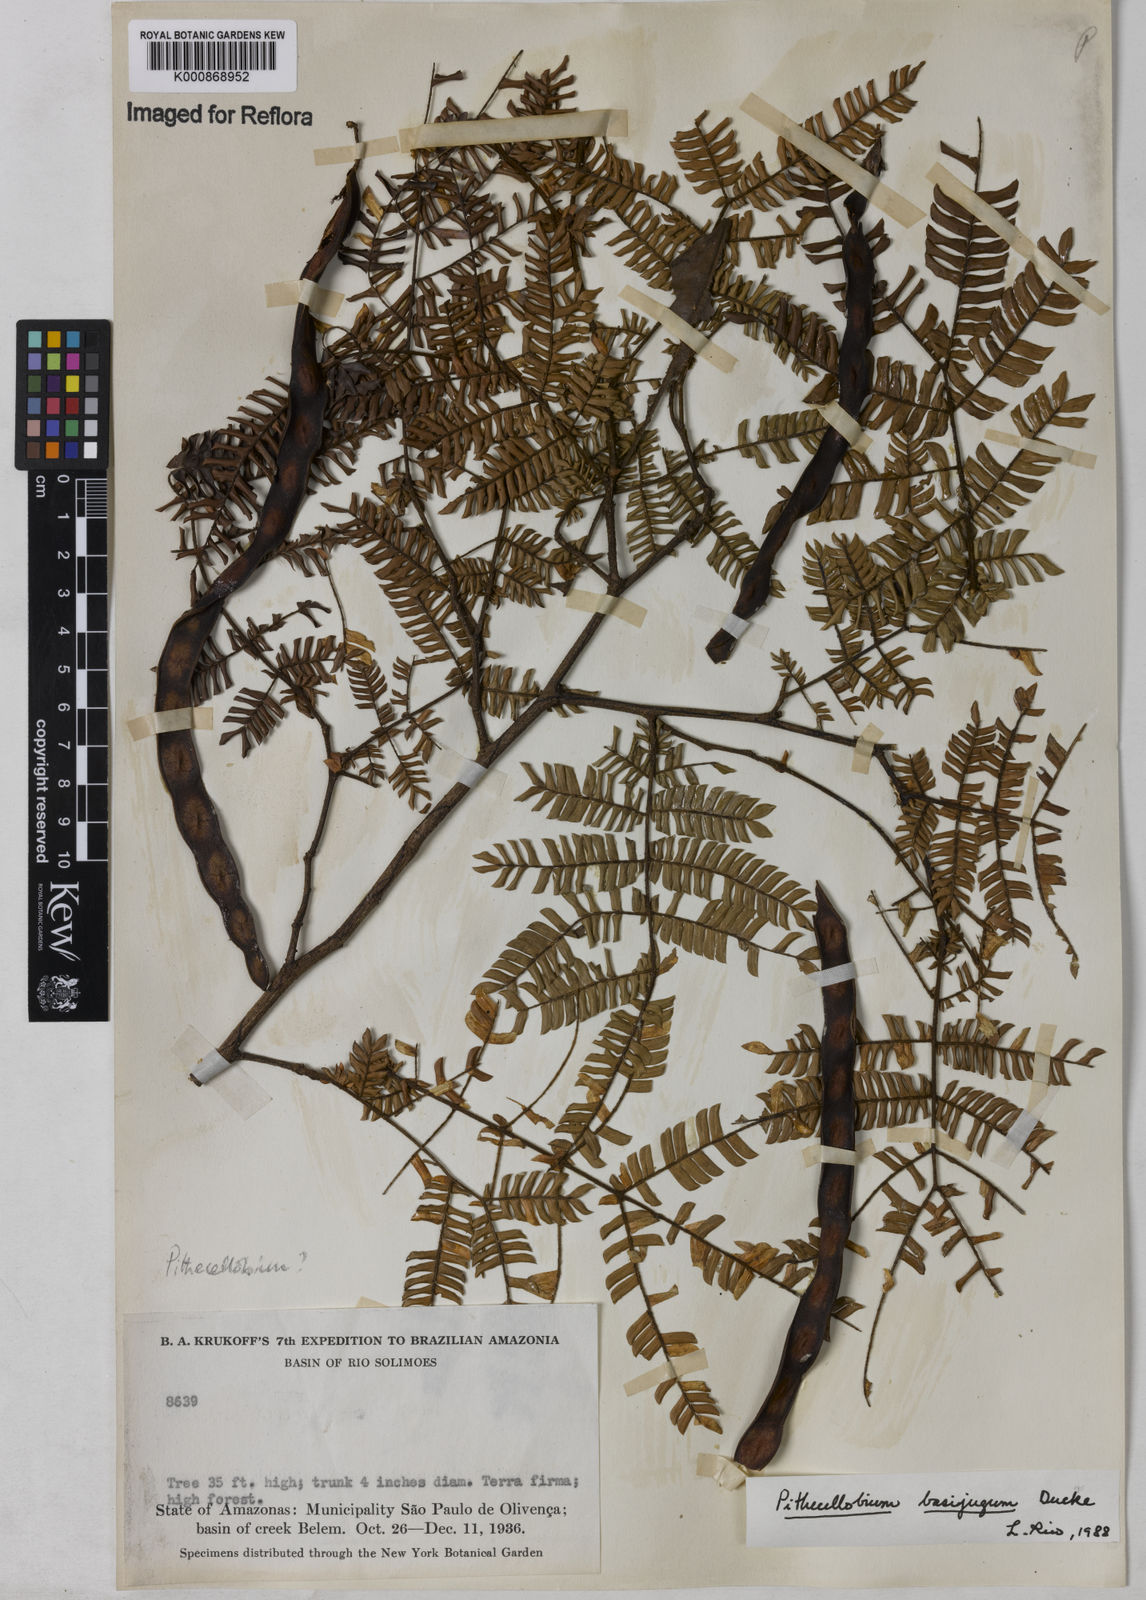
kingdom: Plantae
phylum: Tracheophyta
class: Magnoliopsida
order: Fabales
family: Fabaceae
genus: Zygia
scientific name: Zygia basijuga
